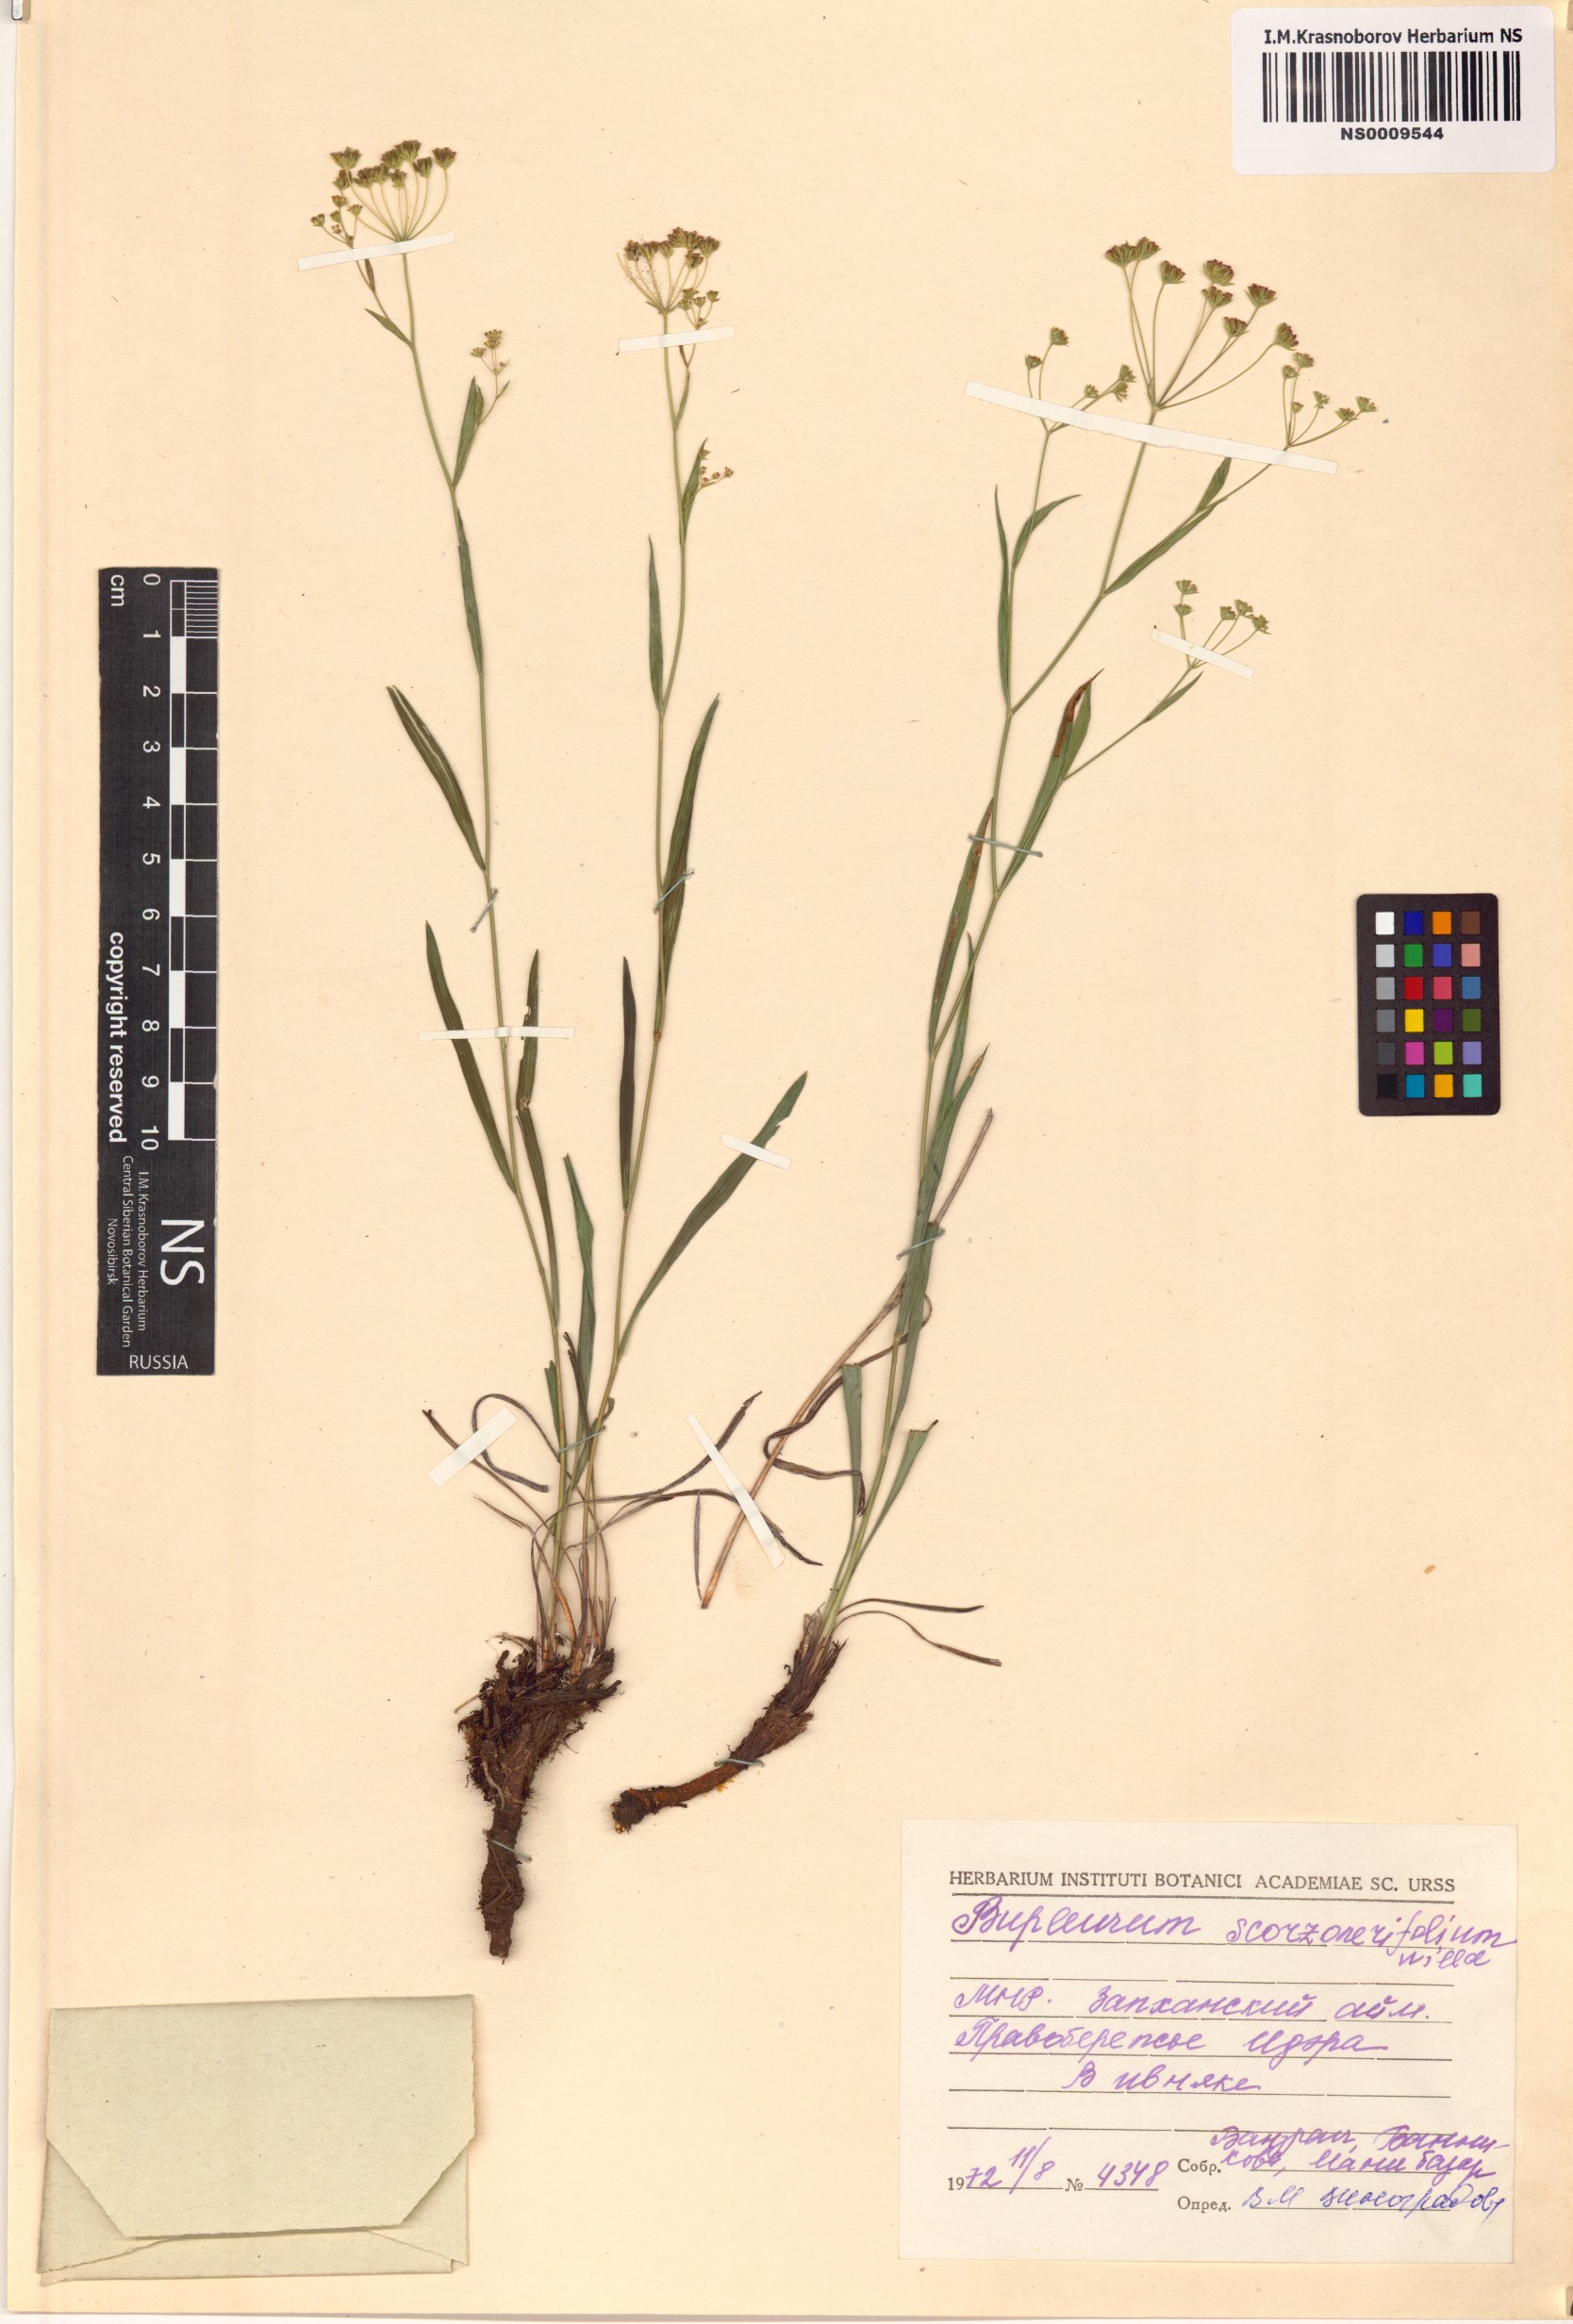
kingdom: Plantae
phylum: Tracheophyta
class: Magnoliopsida
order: Apiales
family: Apiaceae
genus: Bupleurum
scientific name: Bupleurum scorzonerifolium
